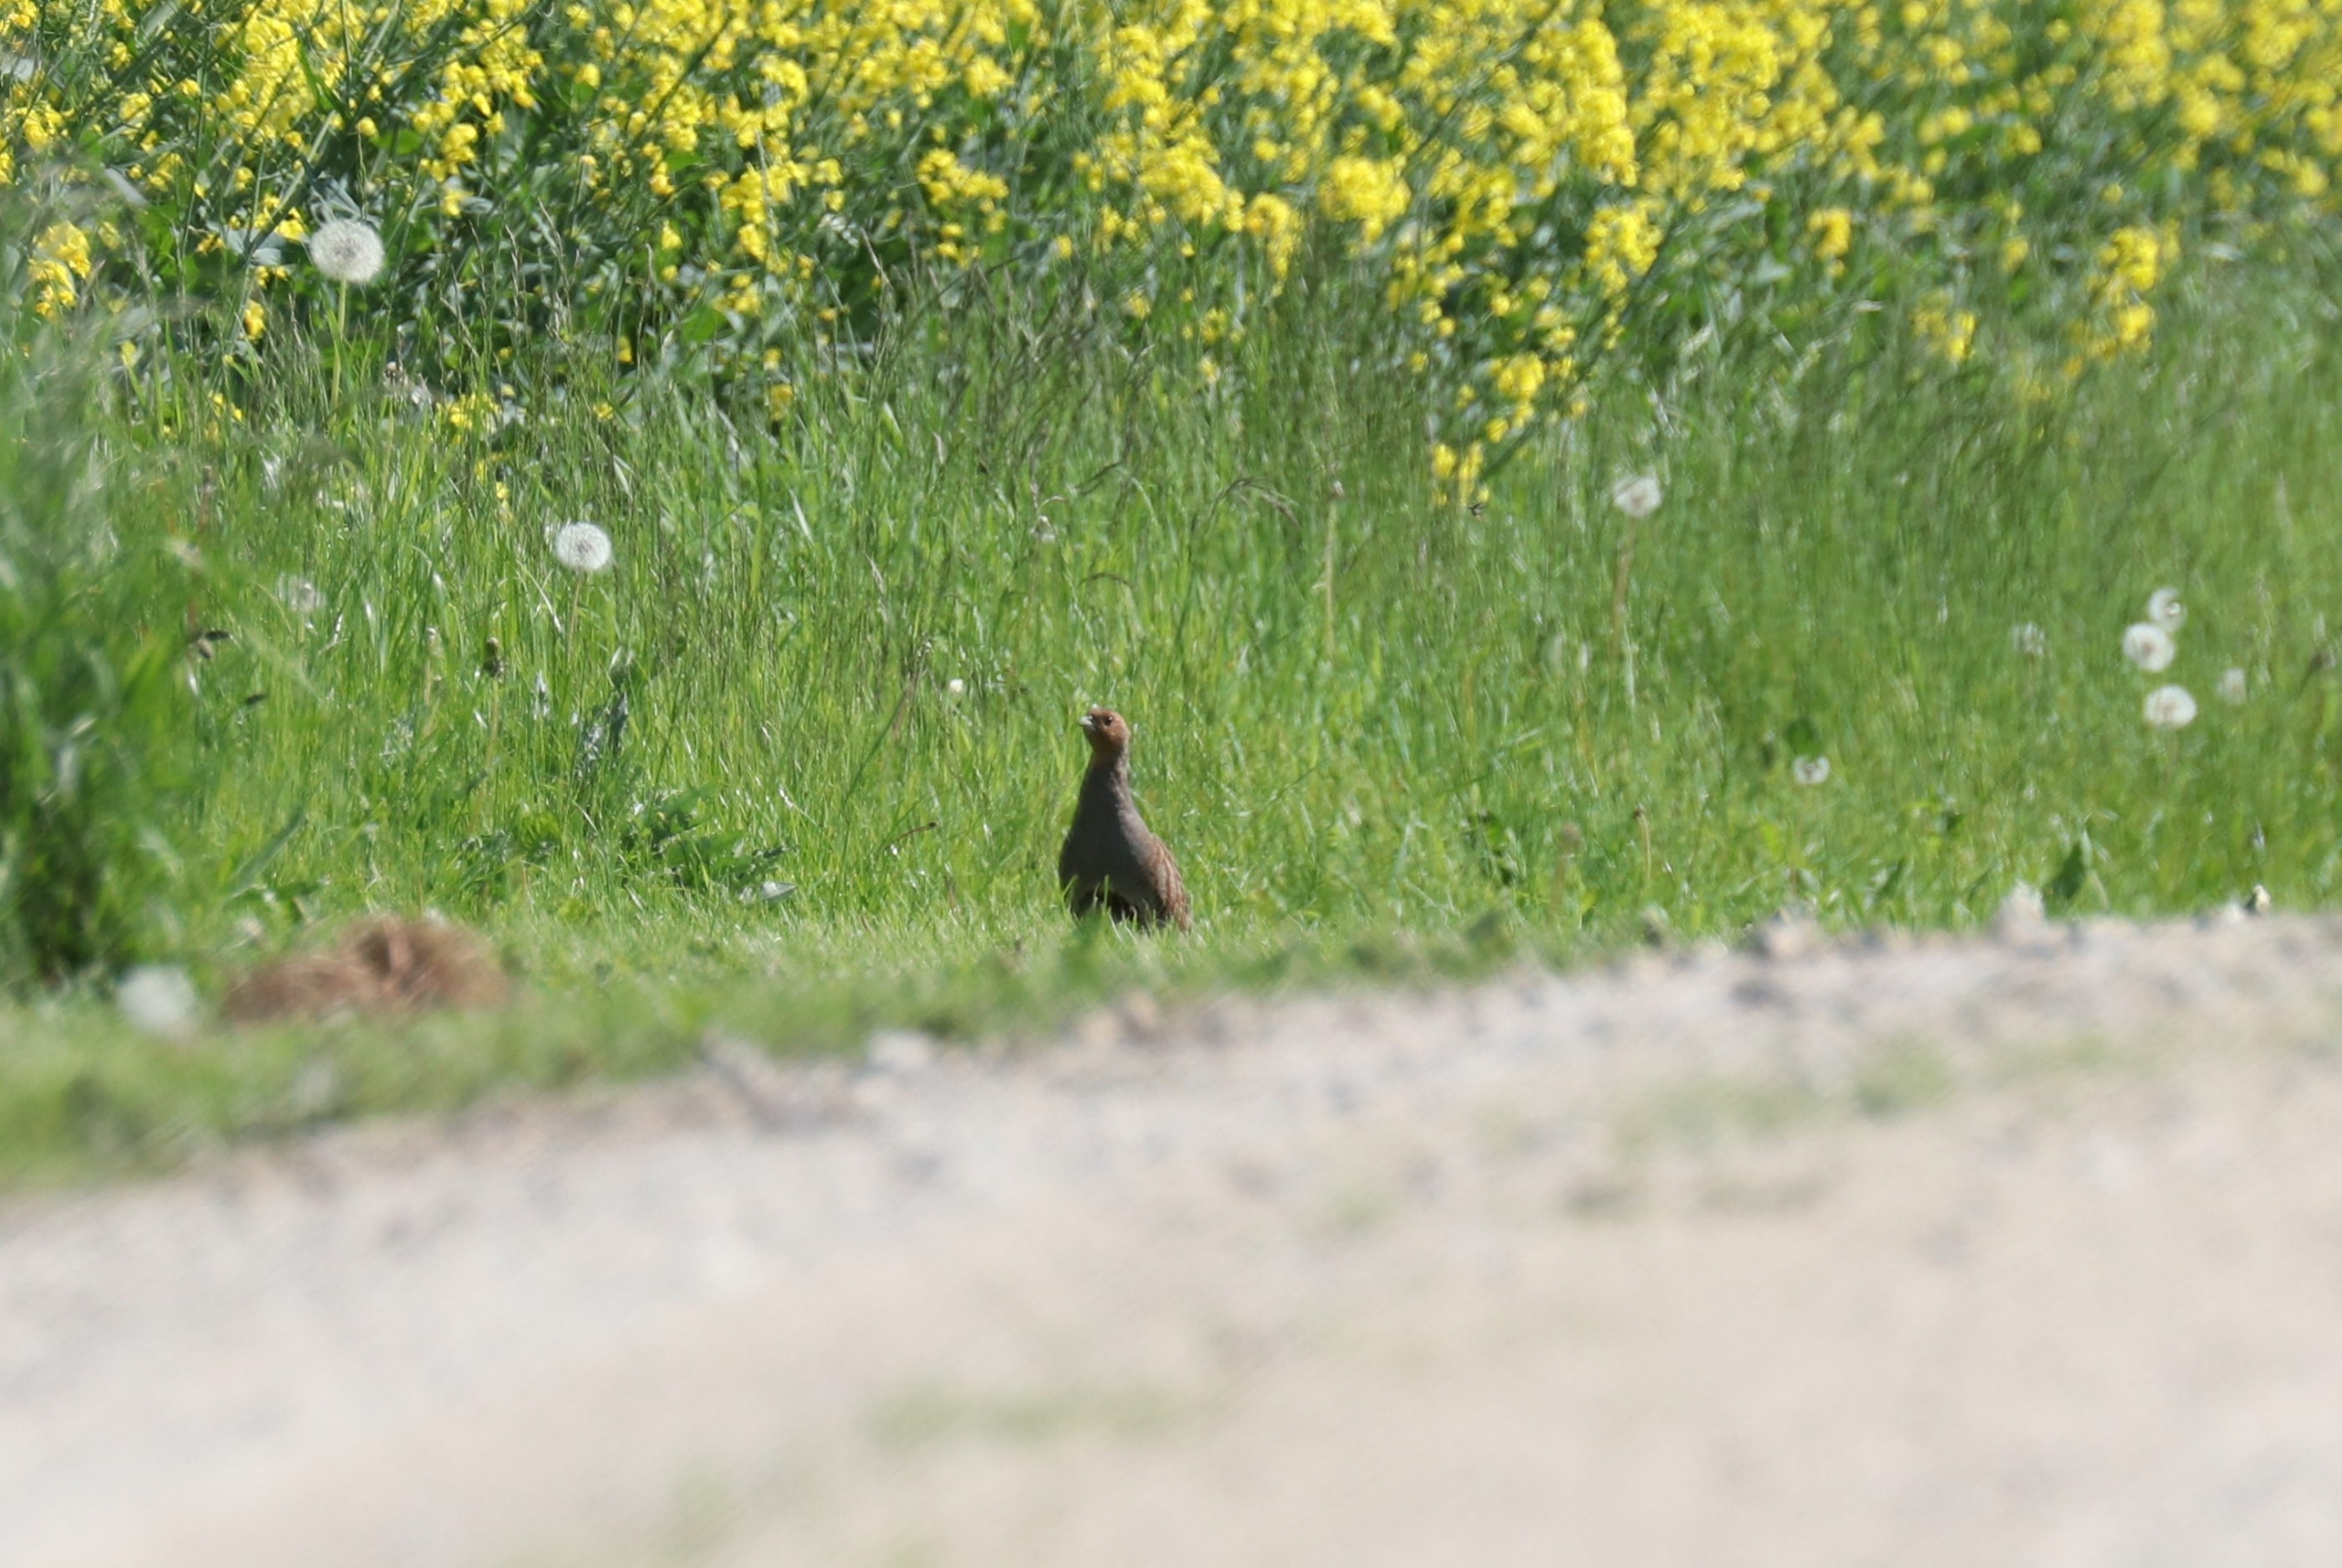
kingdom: Animalia
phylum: Chordata
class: Aves
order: Galliformes
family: Phasianidae
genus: Perdix
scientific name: Perdix perdix
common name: Agerhøne
